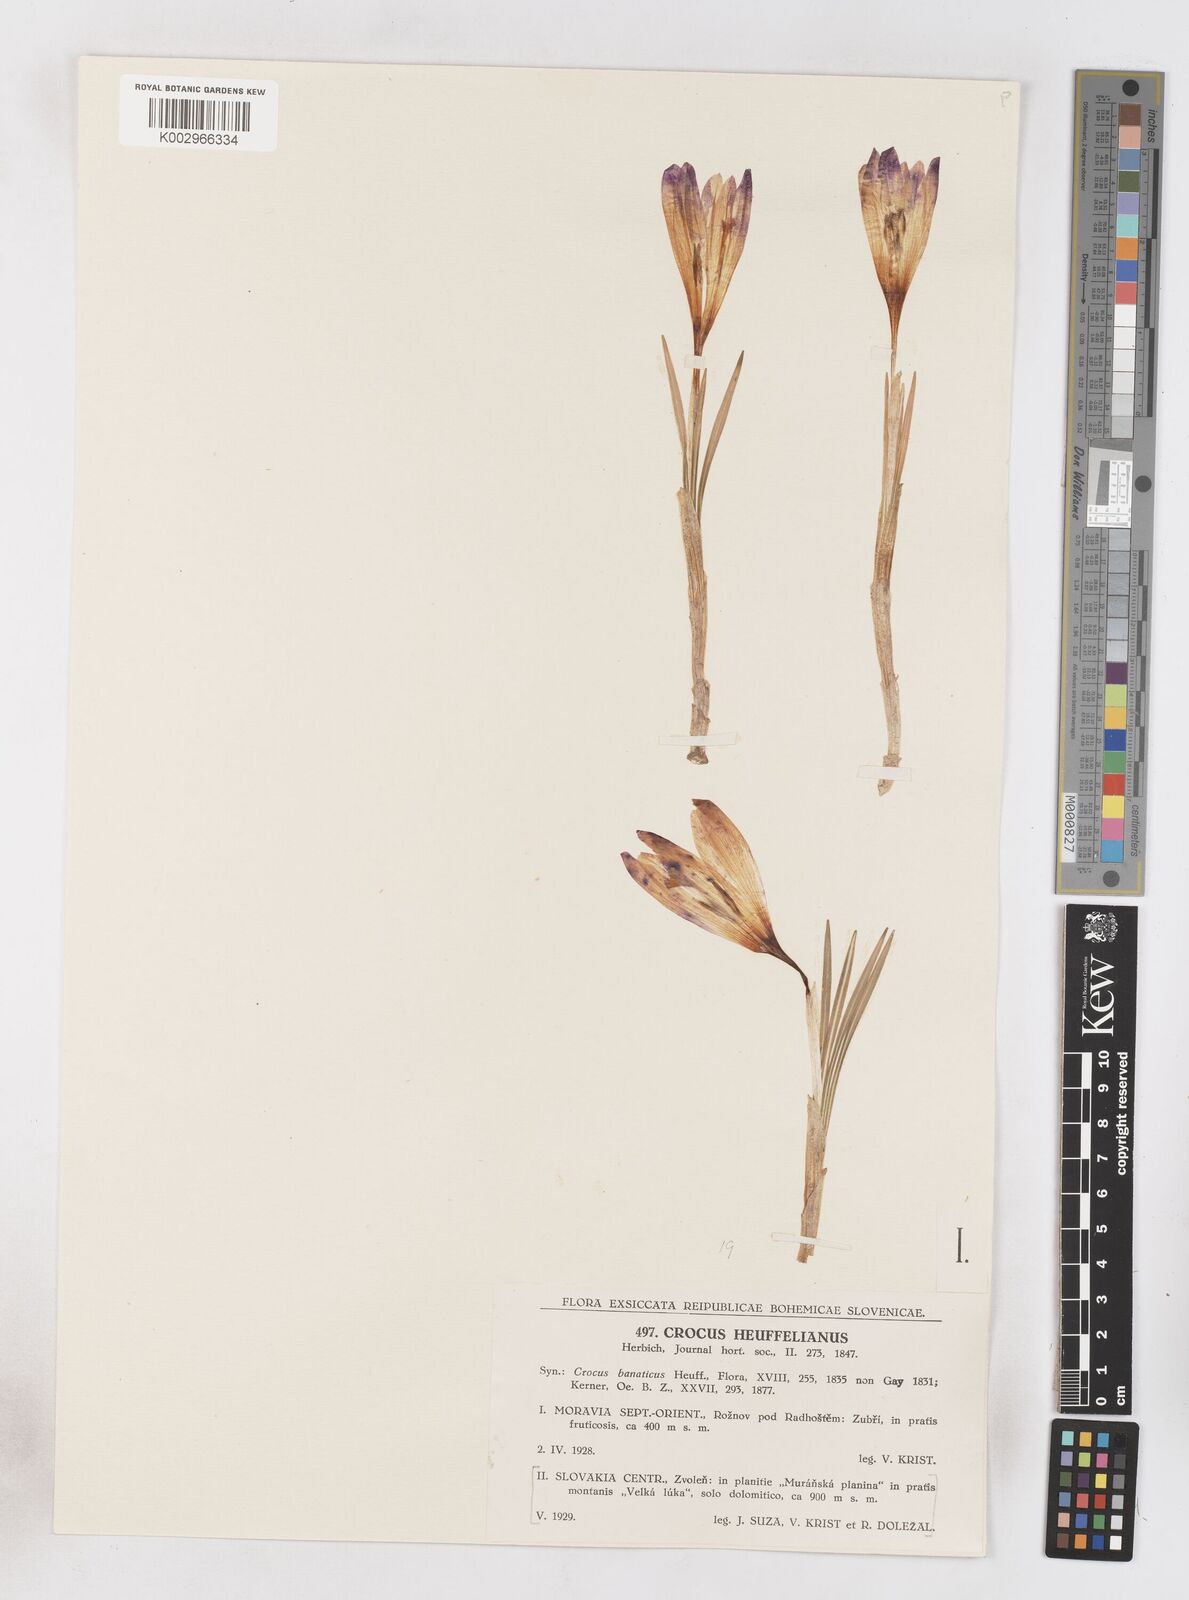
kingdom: Plantae
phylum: Tracheophyta
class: Liliopsida
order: Asparagales
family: Iridaceae
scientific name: Iridaceae
